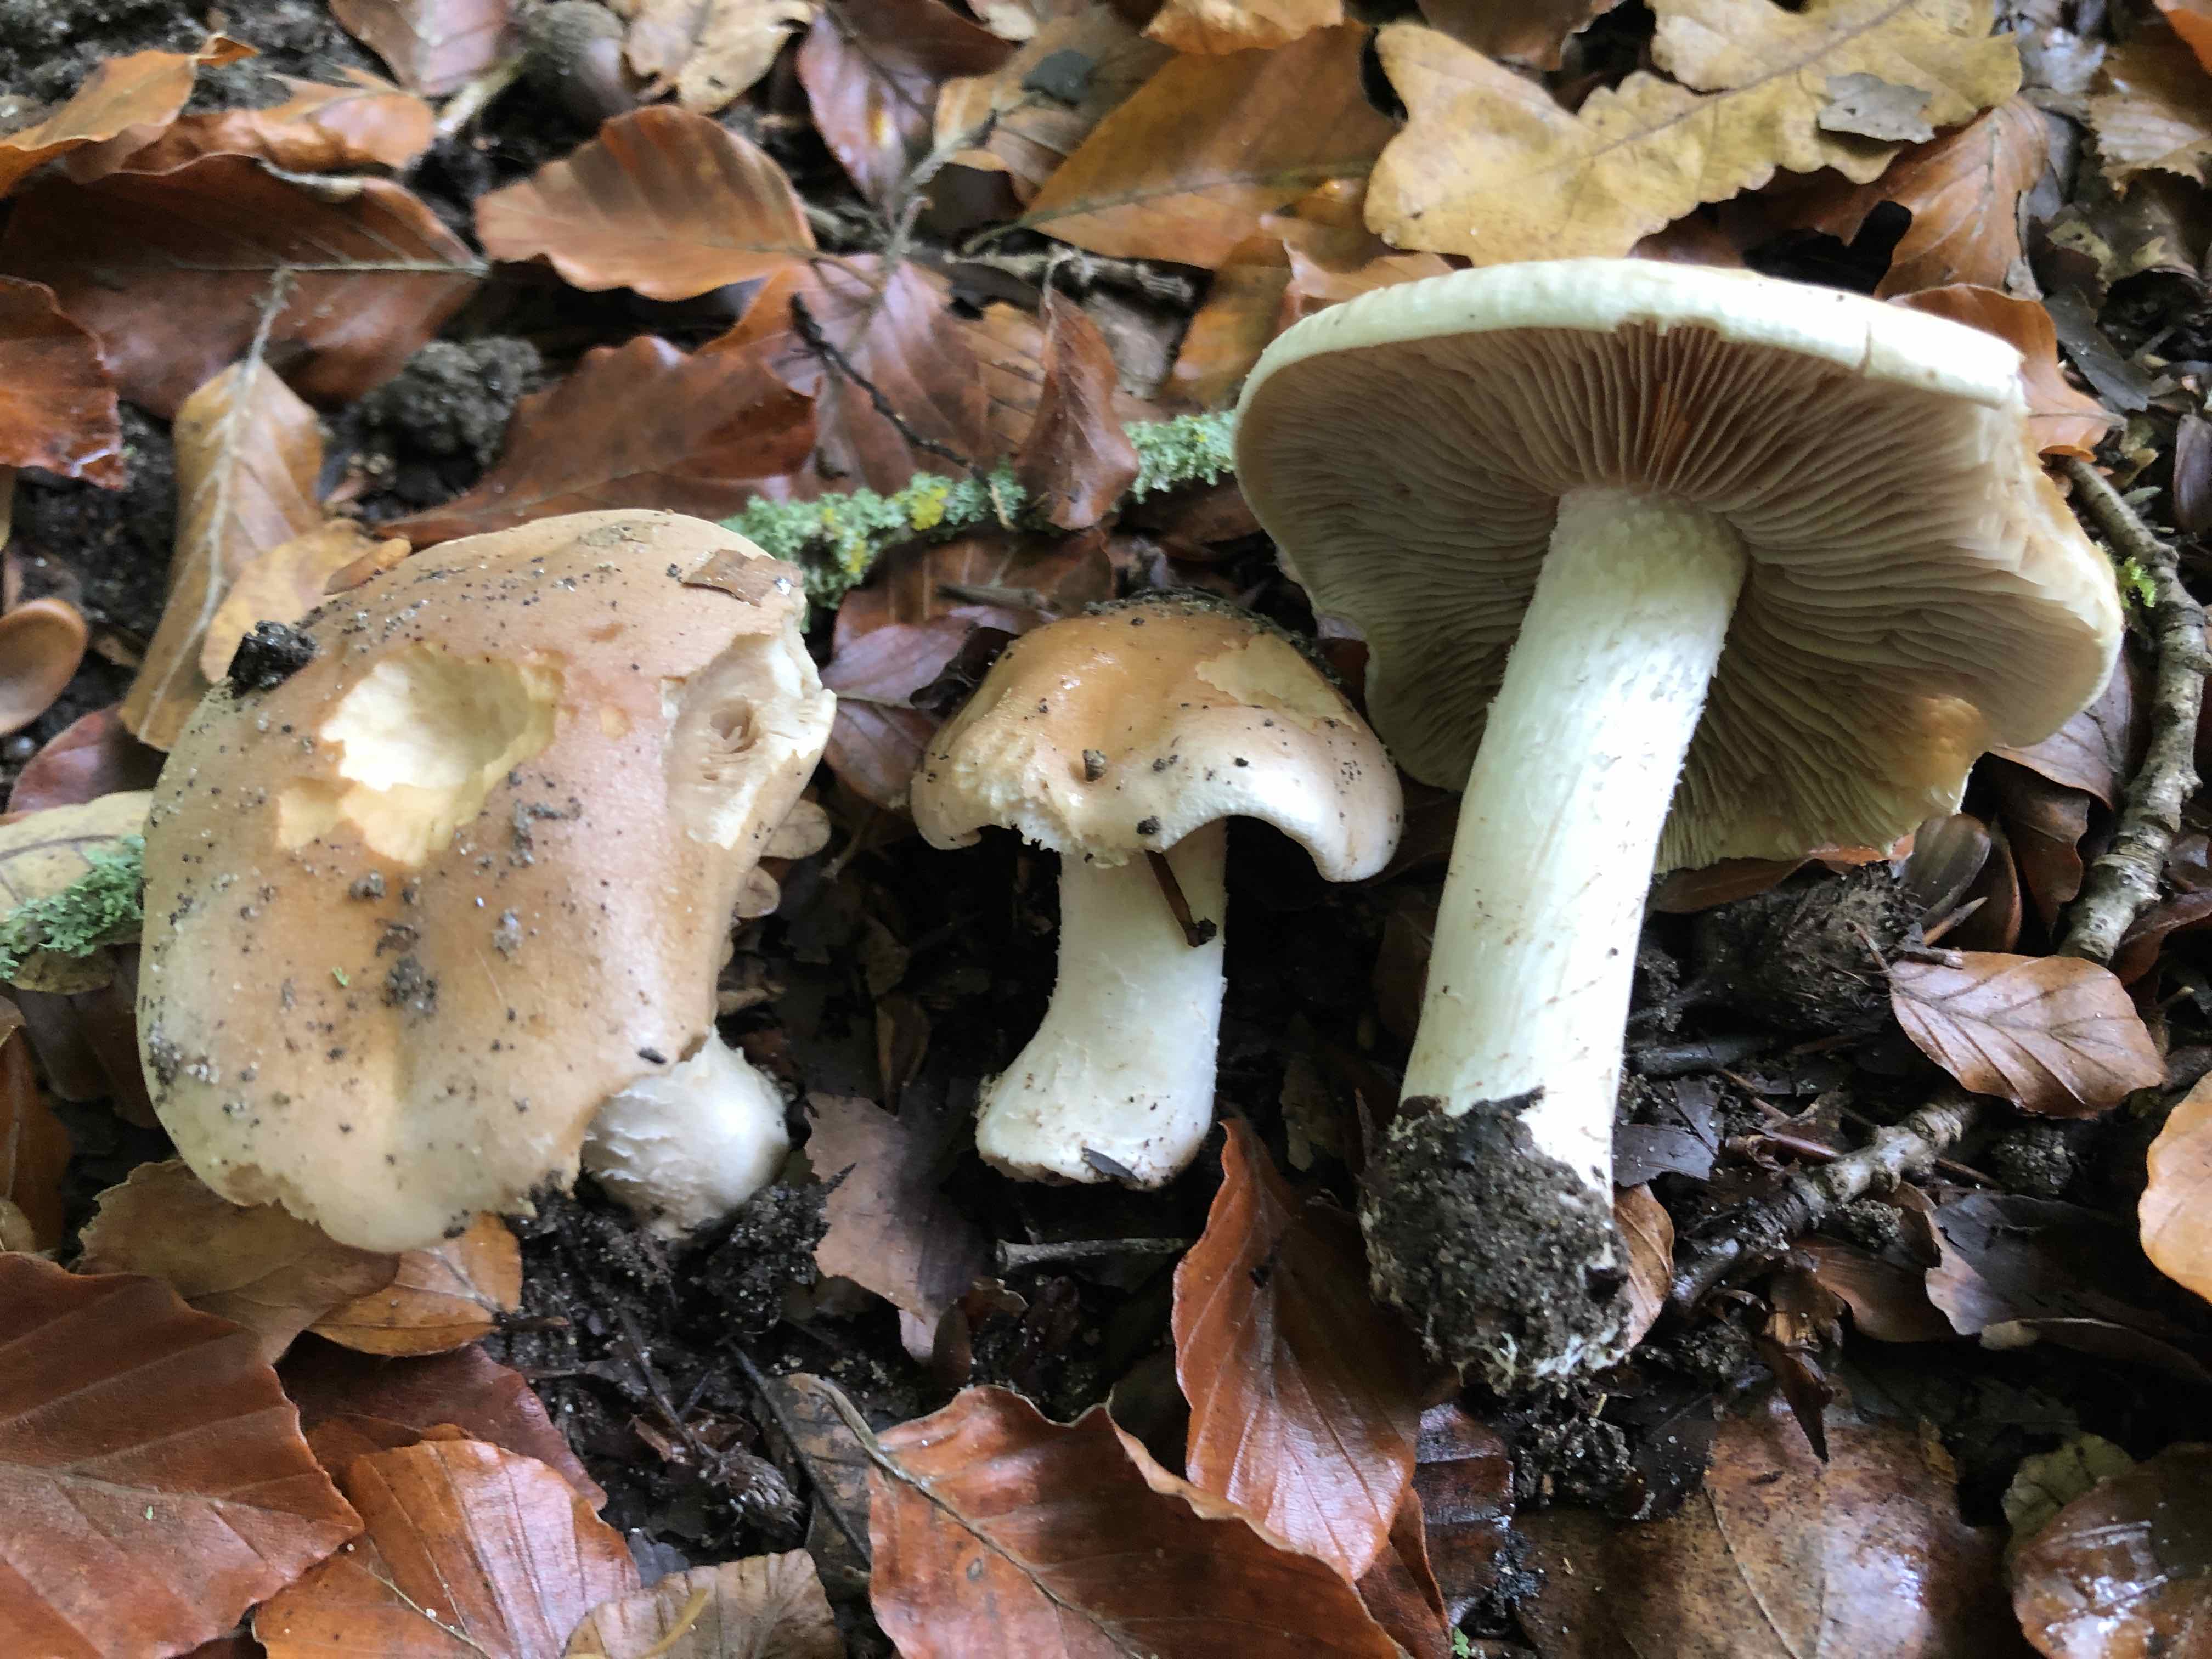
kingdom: Fungi
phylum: Basidiomycota
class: Agaricomycetes
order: Agaricales
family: Hymenogastraceae
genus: Hebeloma
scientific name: Hebeloma sinapizans
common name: ræddike-tåreblad
